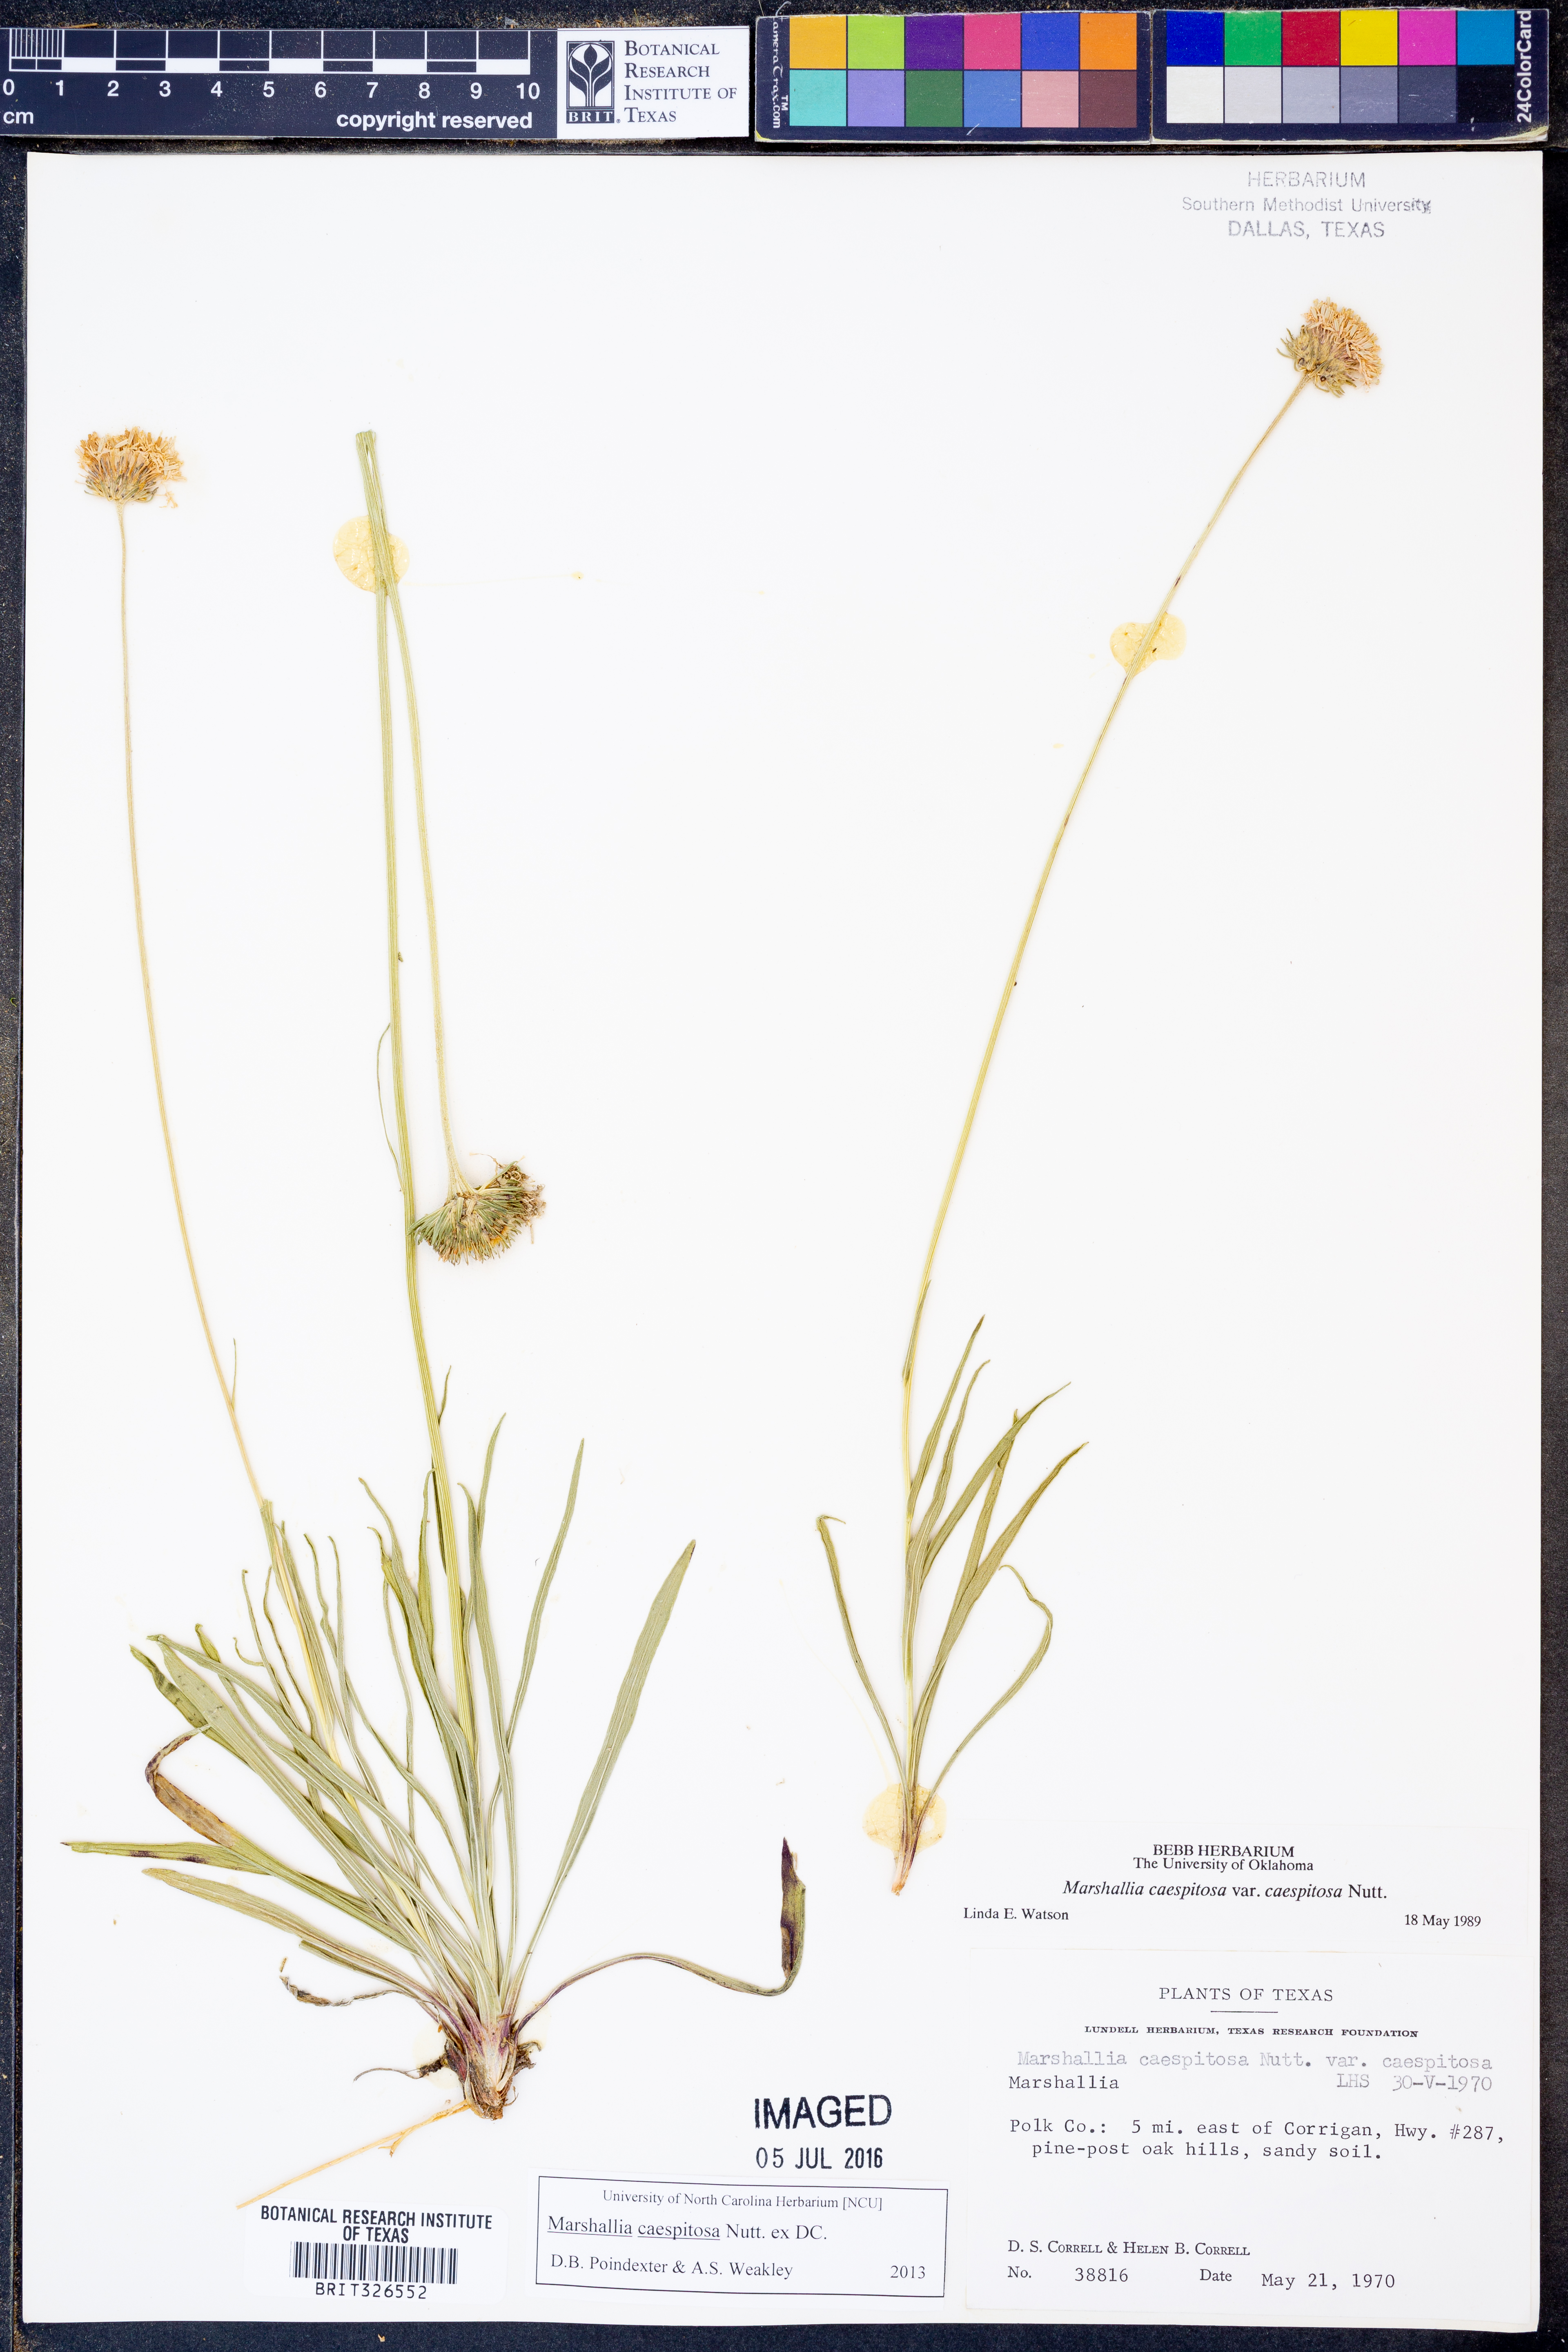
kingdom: Plantae
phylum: Tracheophyta
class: Magnoliopsida
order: Asterales
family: Asteraceae
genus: Marshallia
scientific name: Marshallia caespitosa
